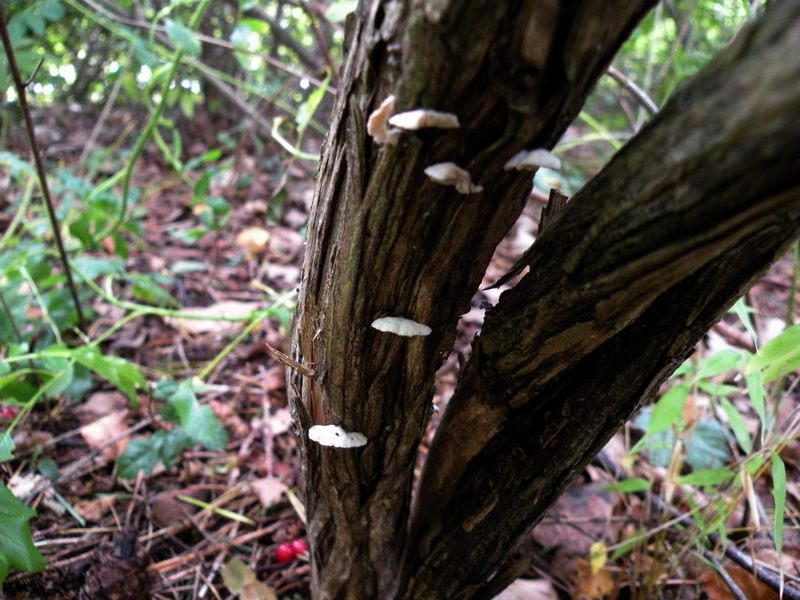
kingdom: Fungi
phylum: Basidiomycota
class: Agaricomycetes
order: Agaricales
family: Crepidotaceae
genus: Crepidotus
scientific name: Crepidotus cesatii
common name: almindelig muslingesvamp
